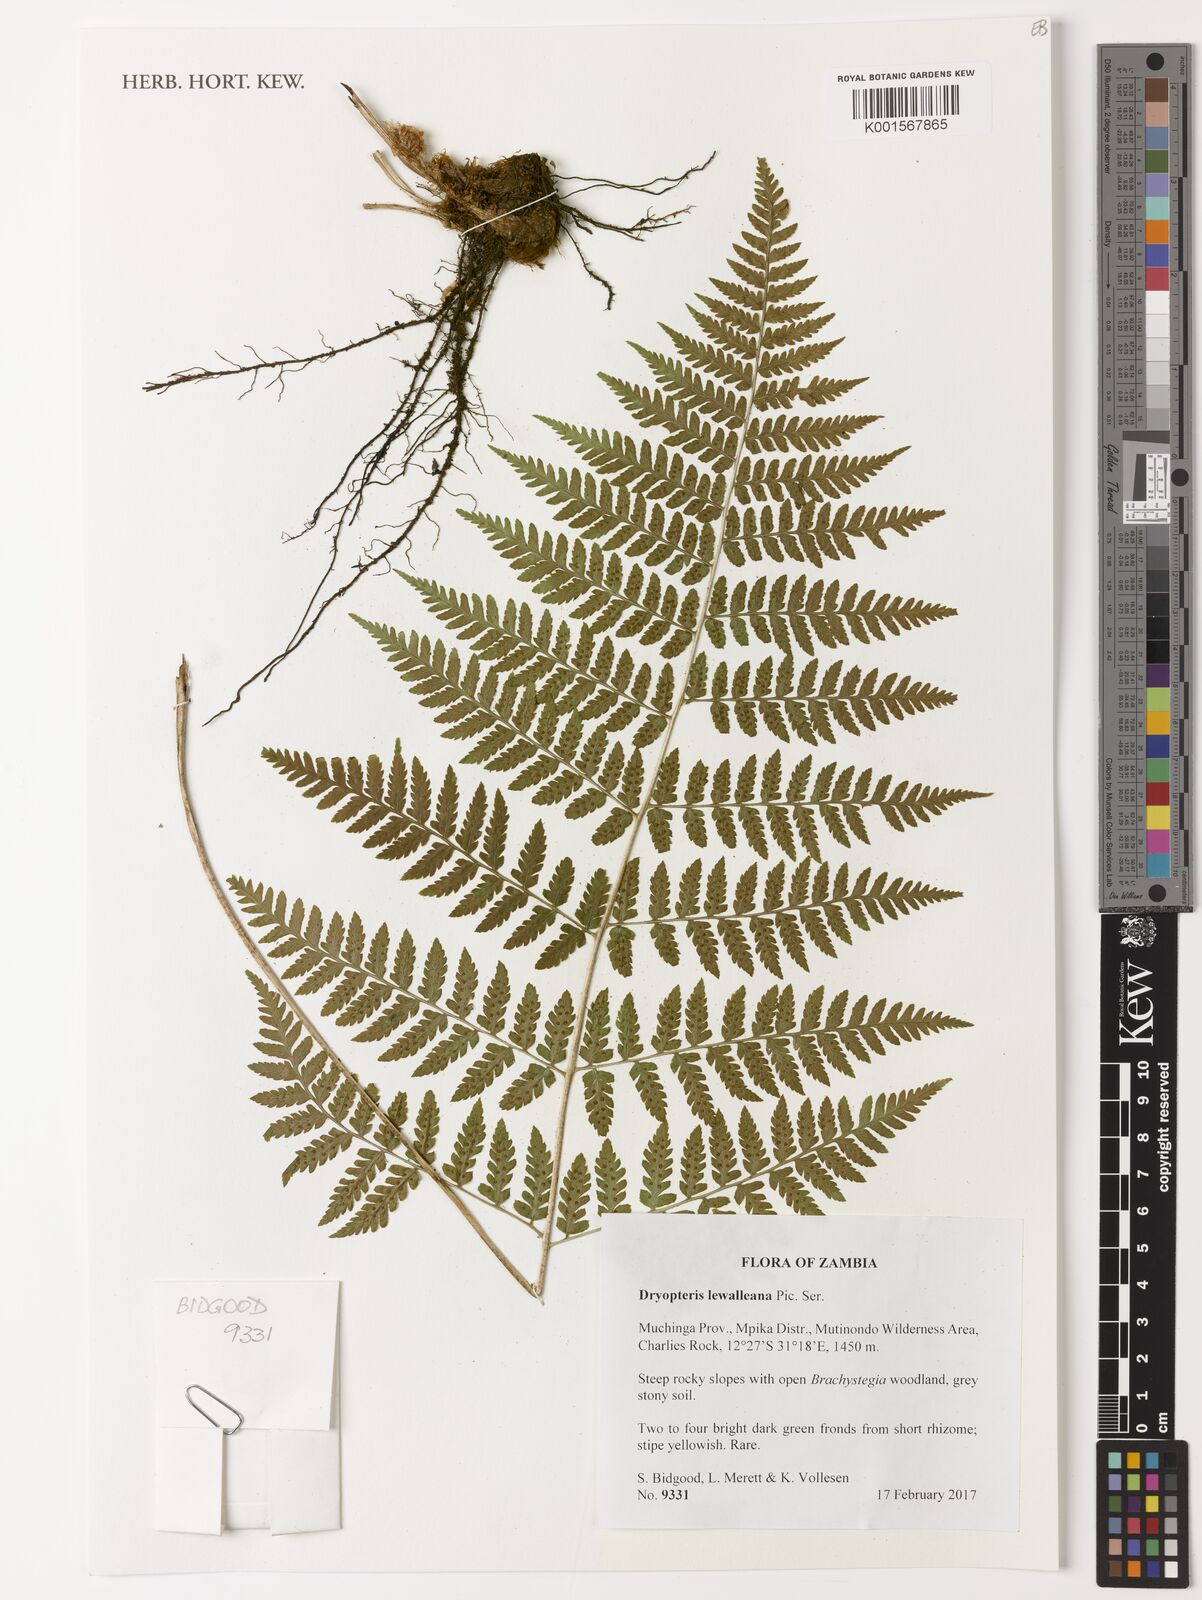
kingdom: Plantae
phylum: Tracheophyta
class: Polypodiopsida
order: Polypodiales
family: Dryopteridaceae
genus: Dryopteris
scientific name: Dryopteris lewalleana
